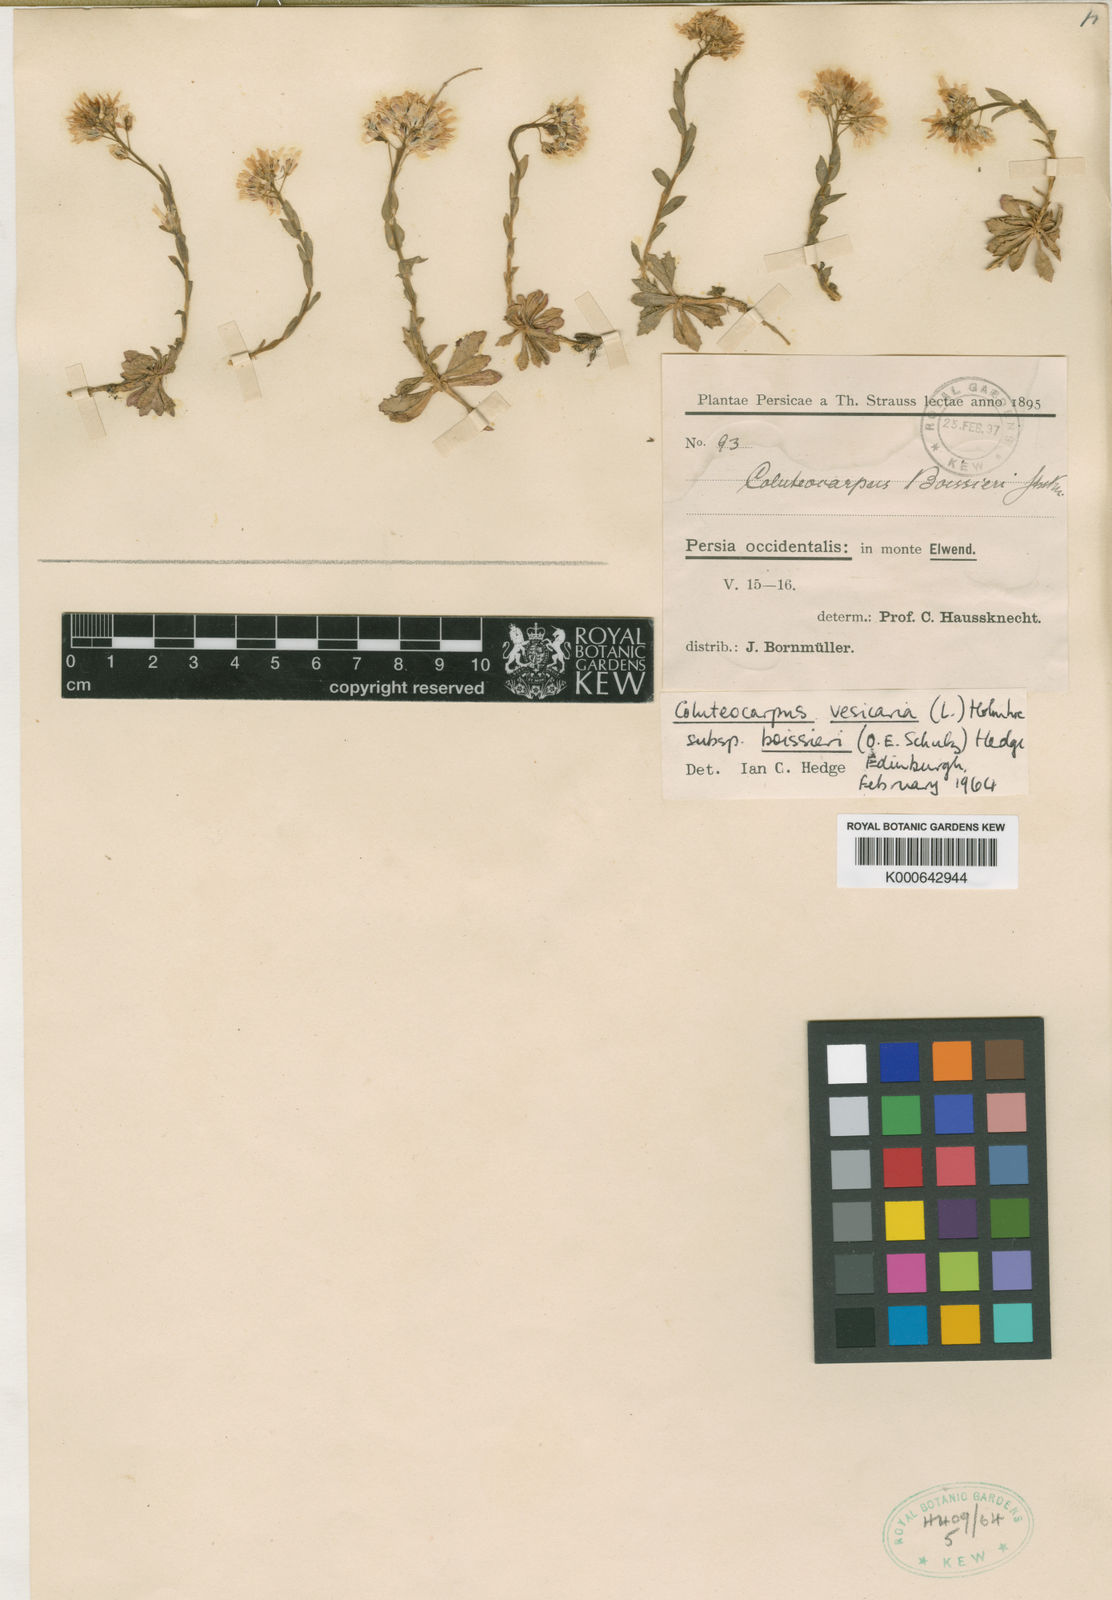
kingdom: Plantae
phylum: Tracheophyta
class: Magnoliopsida
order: Brassicales
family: Brassicaceae
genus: Noccaea
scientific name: Noccaea vesicaria
